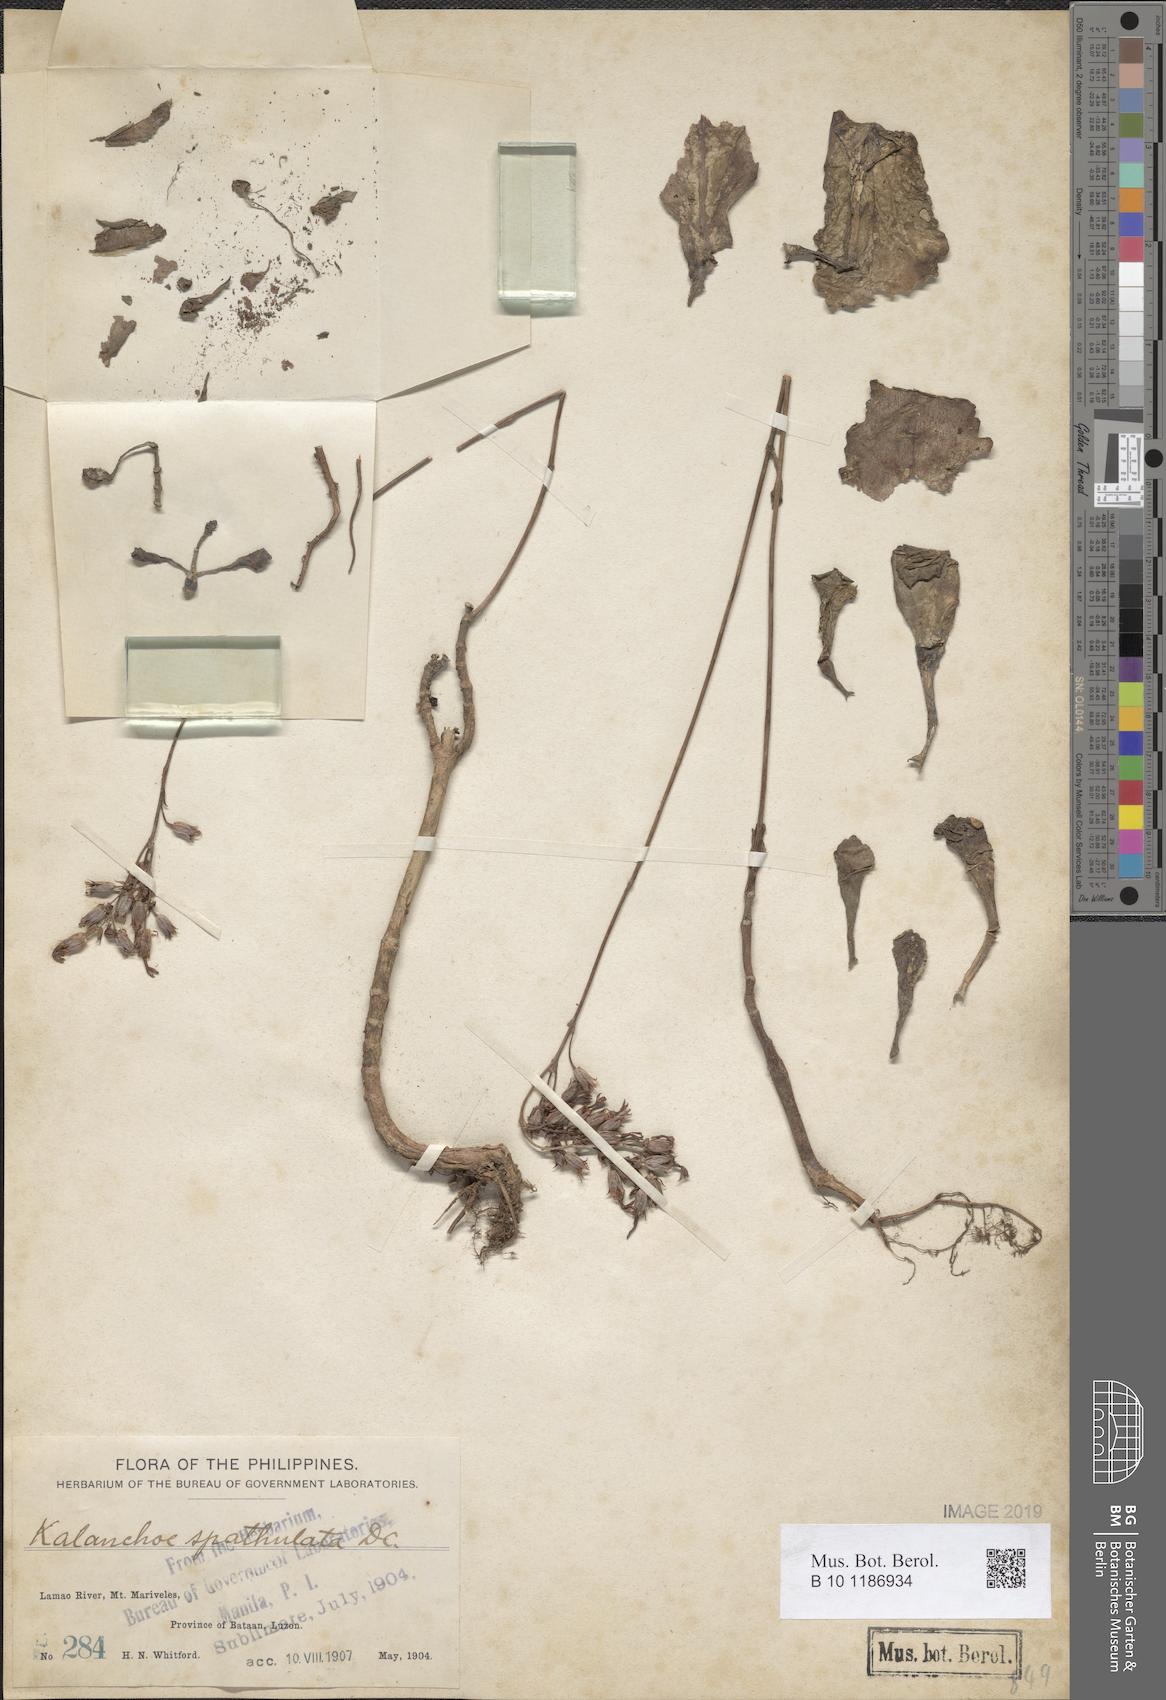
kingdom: Plantae
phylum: Tracheophyta
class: Magnoliopsida
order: Saxifragales
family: Crassulaceae
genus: Kalanchoe
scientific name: Kalanchoe integra
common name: Neverdie
